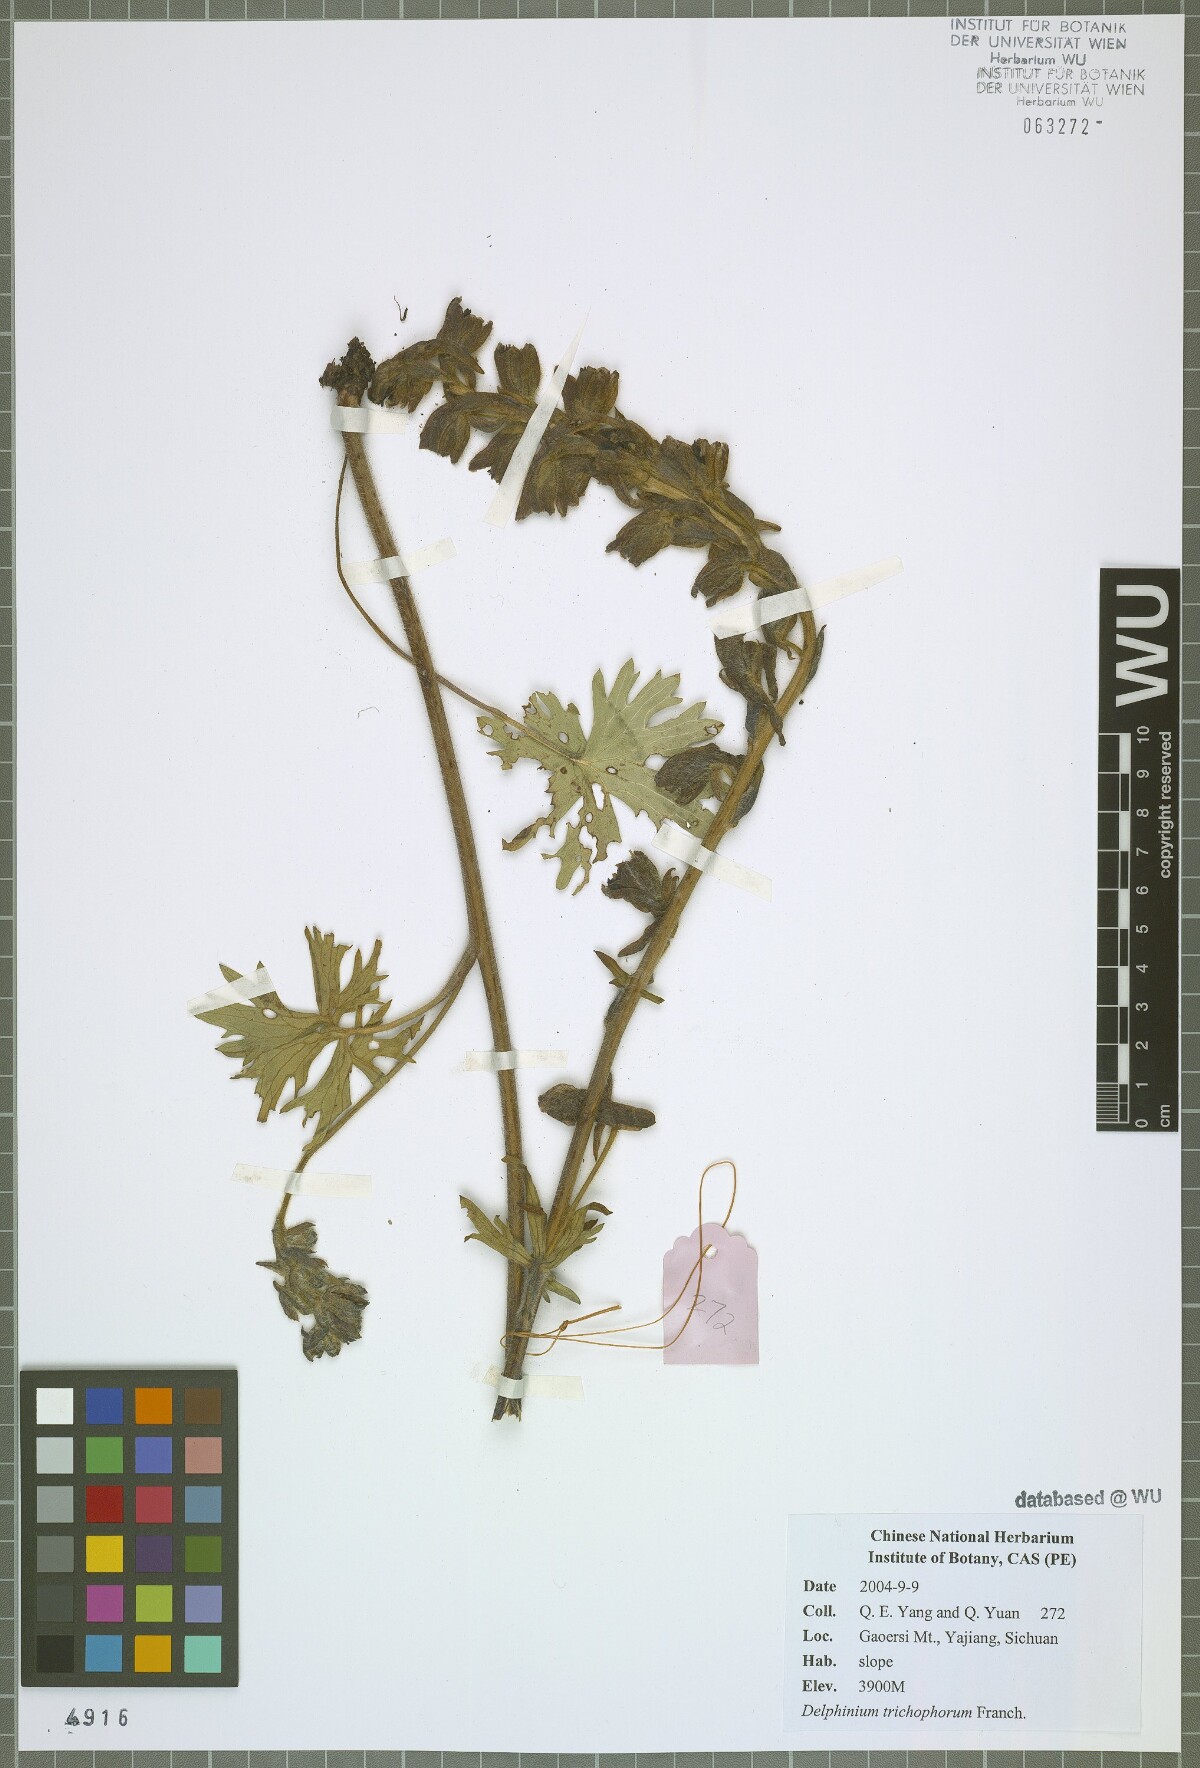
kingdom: Plantae
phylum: Tracheophyta
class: Magnoliopsida
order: Ranunculales
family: Ranunculaceae
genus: Delphinium
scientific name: Delphinium trichophorum
